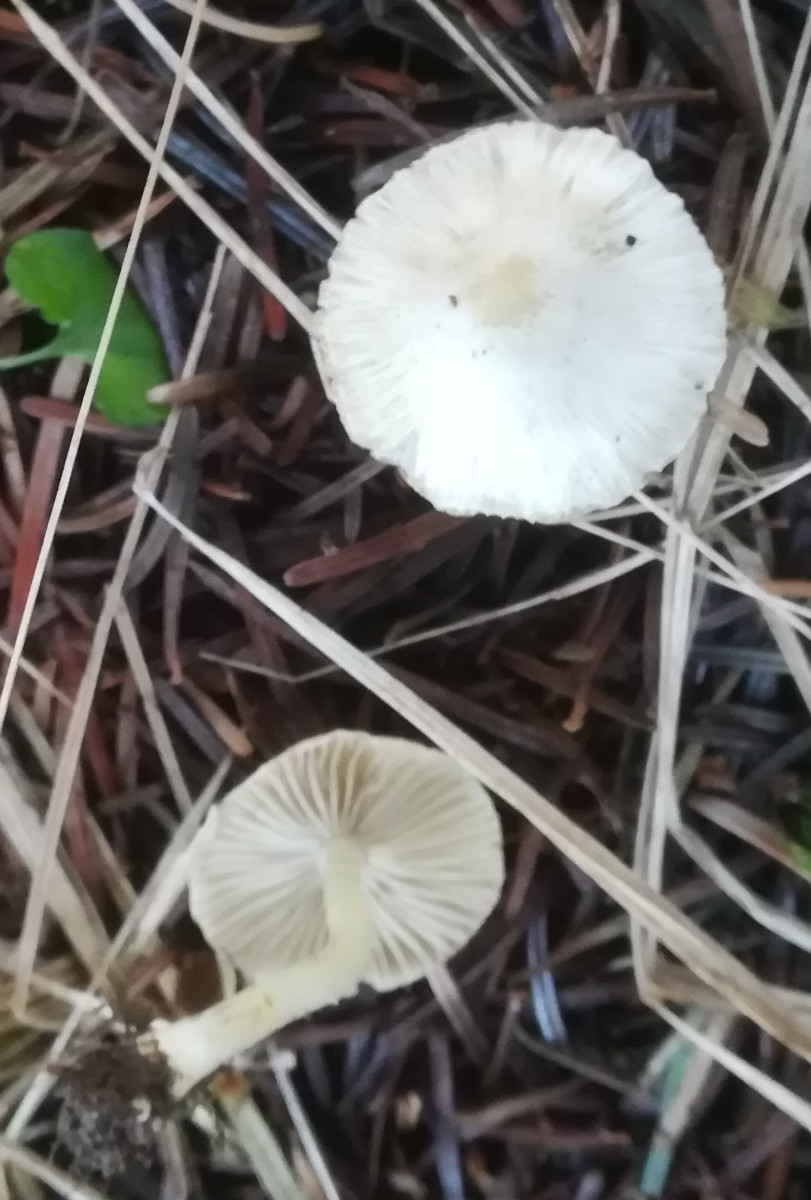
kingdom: Fungi
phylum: Basidiomycota
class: Agaricomycetes
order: Agaricales
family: Inocybaceae
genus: Inocybe
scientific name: Inocybe
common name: almindelig trævlhat
